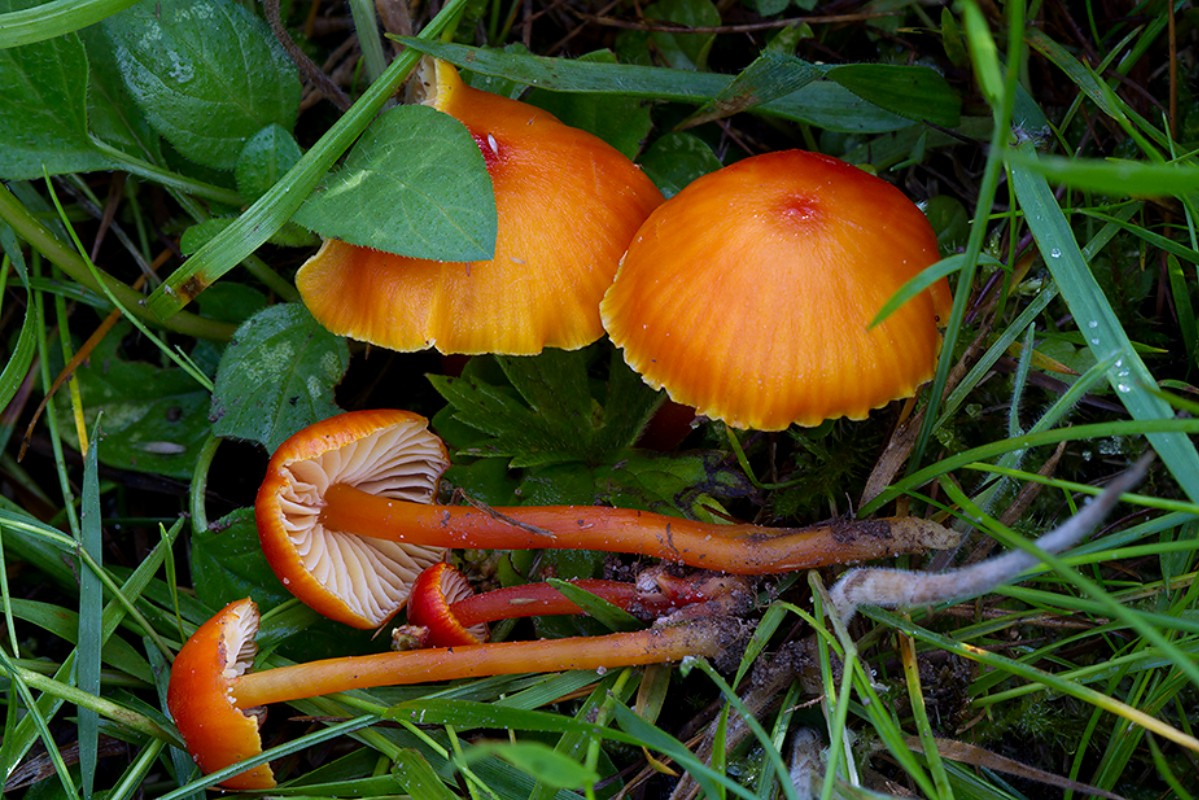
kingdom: Fungi
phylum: Basidiomycota
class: Agaricomycetes
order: Agaricales
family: Hygrophoraceae
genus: Hygrocybe
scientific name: Hygrocybe subpapillata
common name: papil-vokshat
